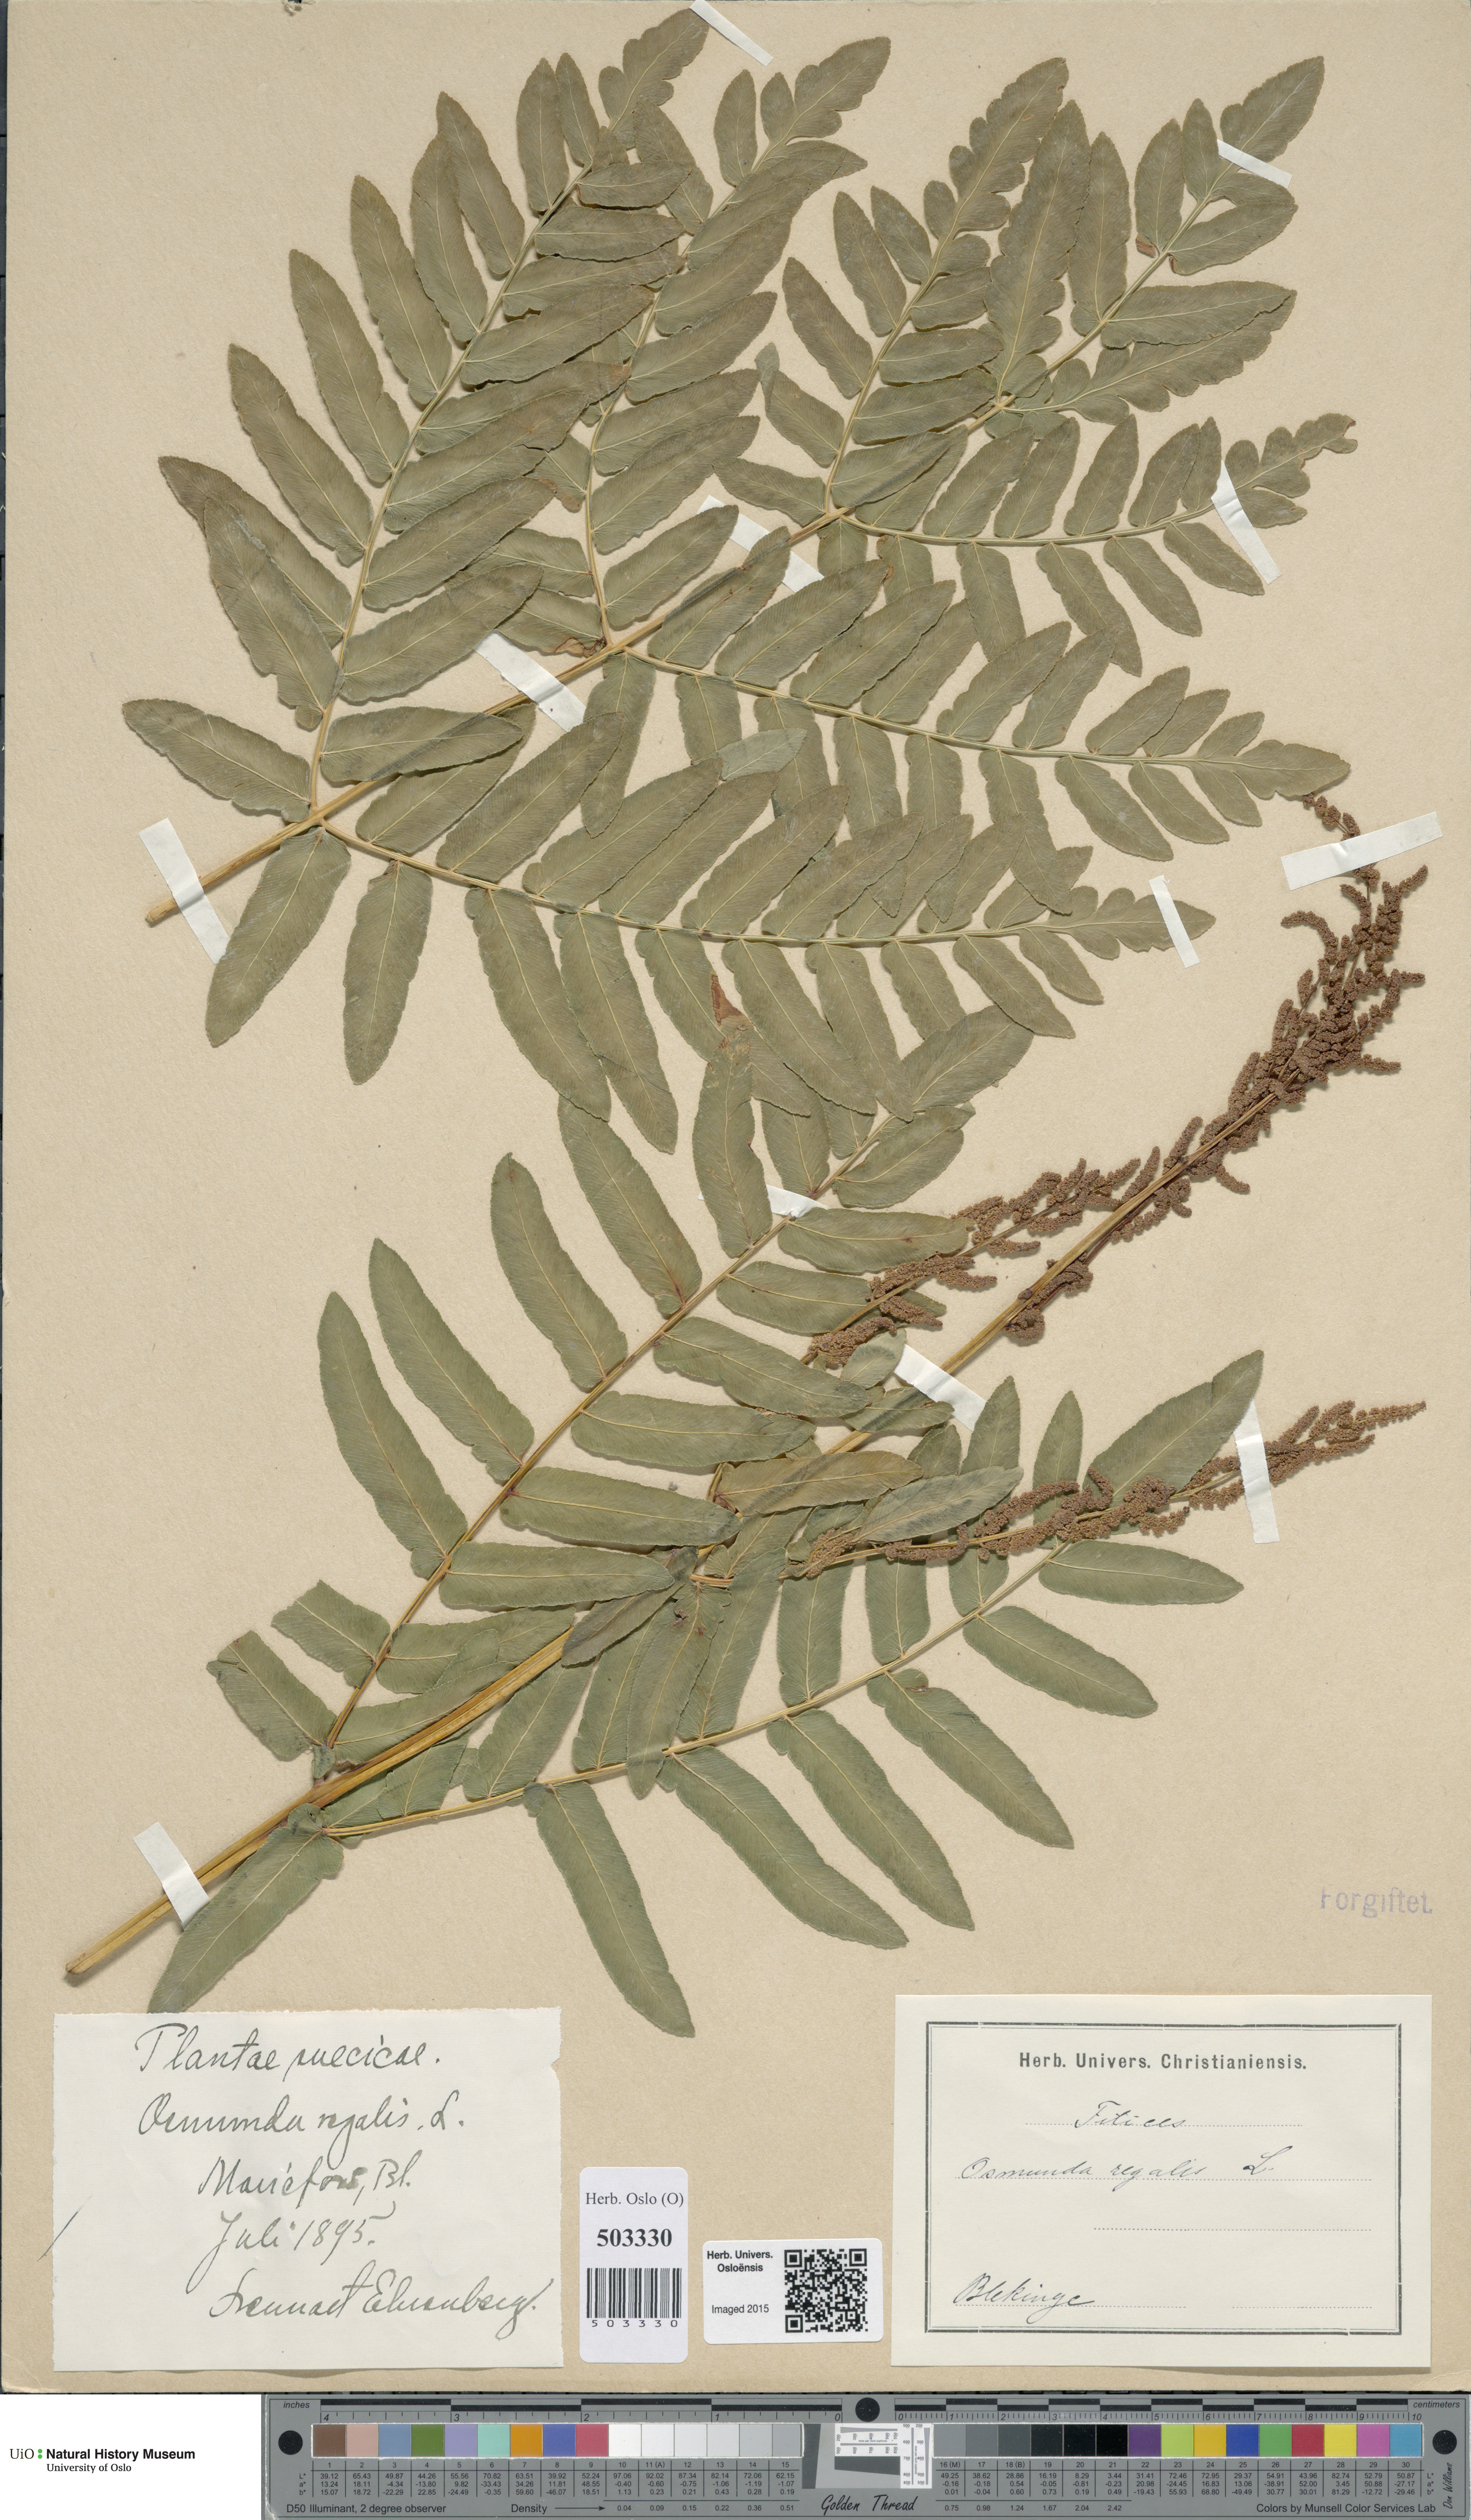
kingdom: Plantae
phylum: Tracheophyta
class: Polypodiopsida
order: Osmundales
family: Osmundaceae
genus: Osmunda
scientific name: Osmunda regalis
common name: Royal fern
